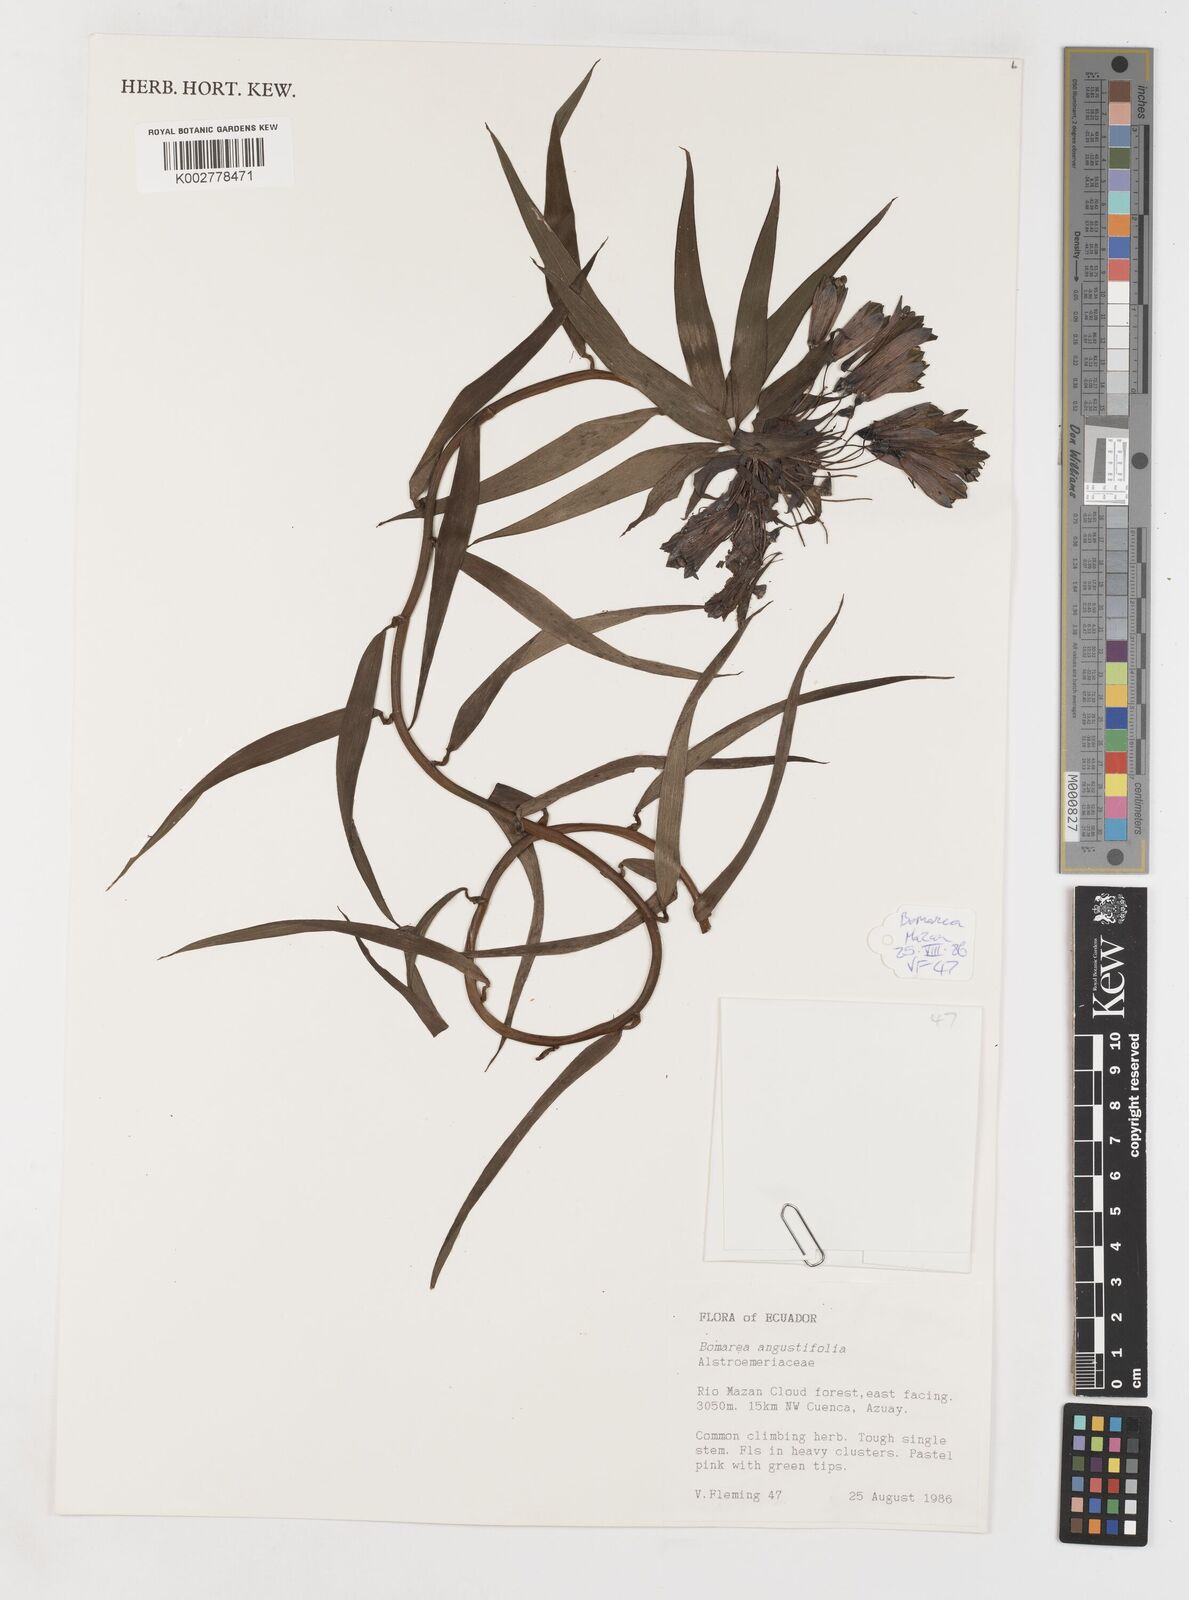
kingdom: Plantae
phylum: Tracheophyta
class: Liliopsida
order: Liliales
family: Alstroemeriaceae
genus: Bomarea
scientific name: Bomarea angulata
